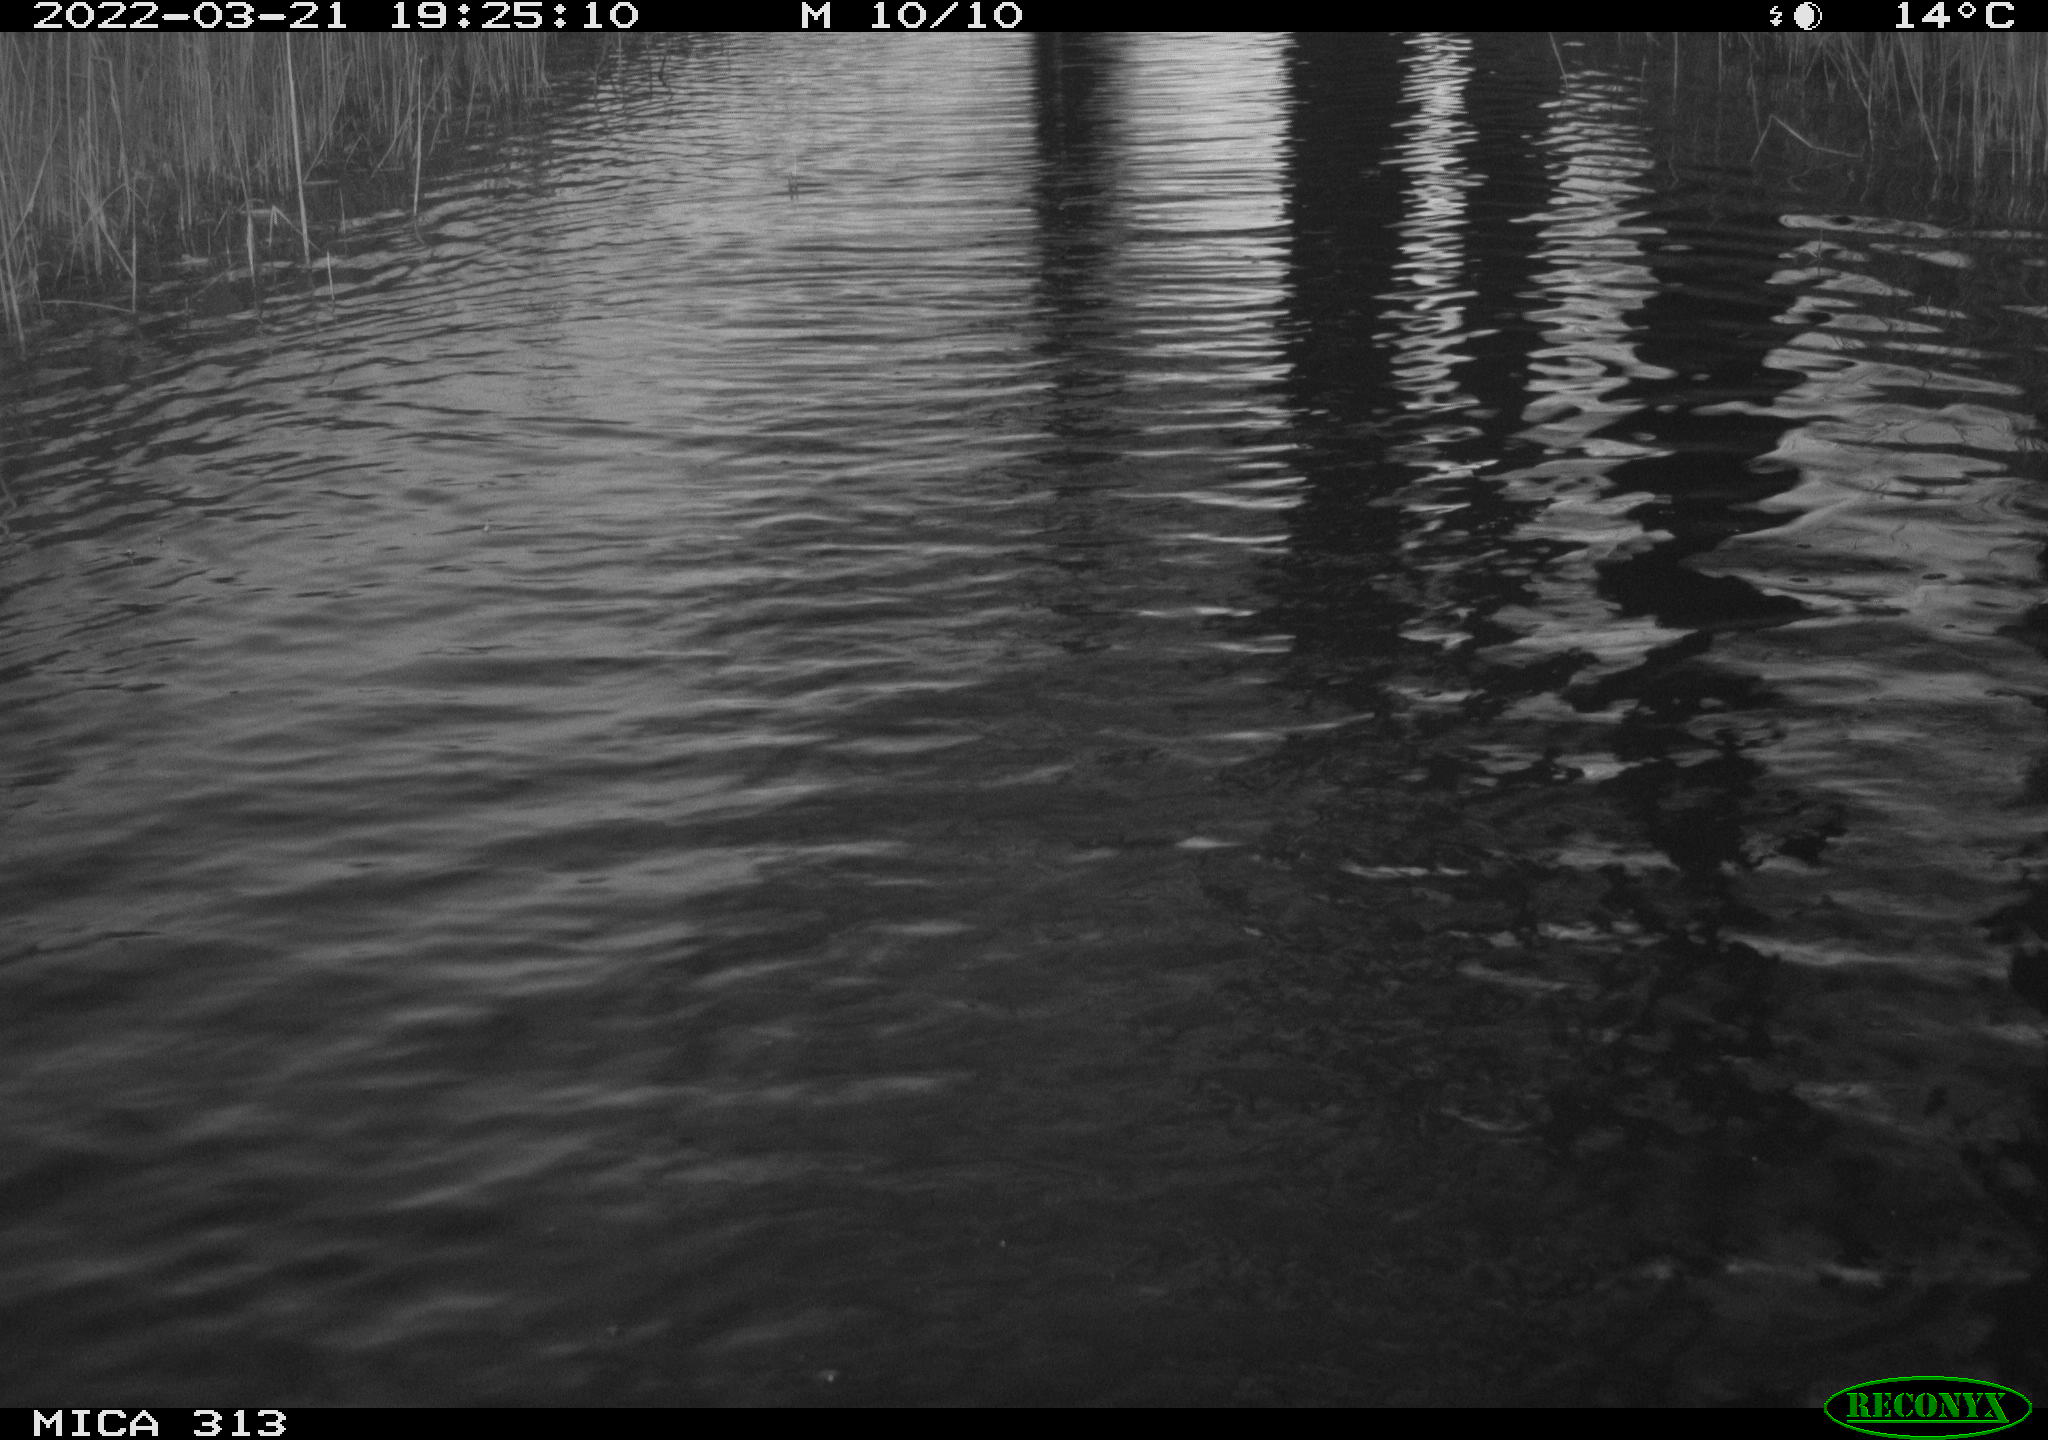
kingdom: Animalia
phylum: Chordata
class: Aves
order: Gruiformes
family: Rallidae
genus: Gallinula
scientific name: Gallinula chloropus
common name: Common moorhen
